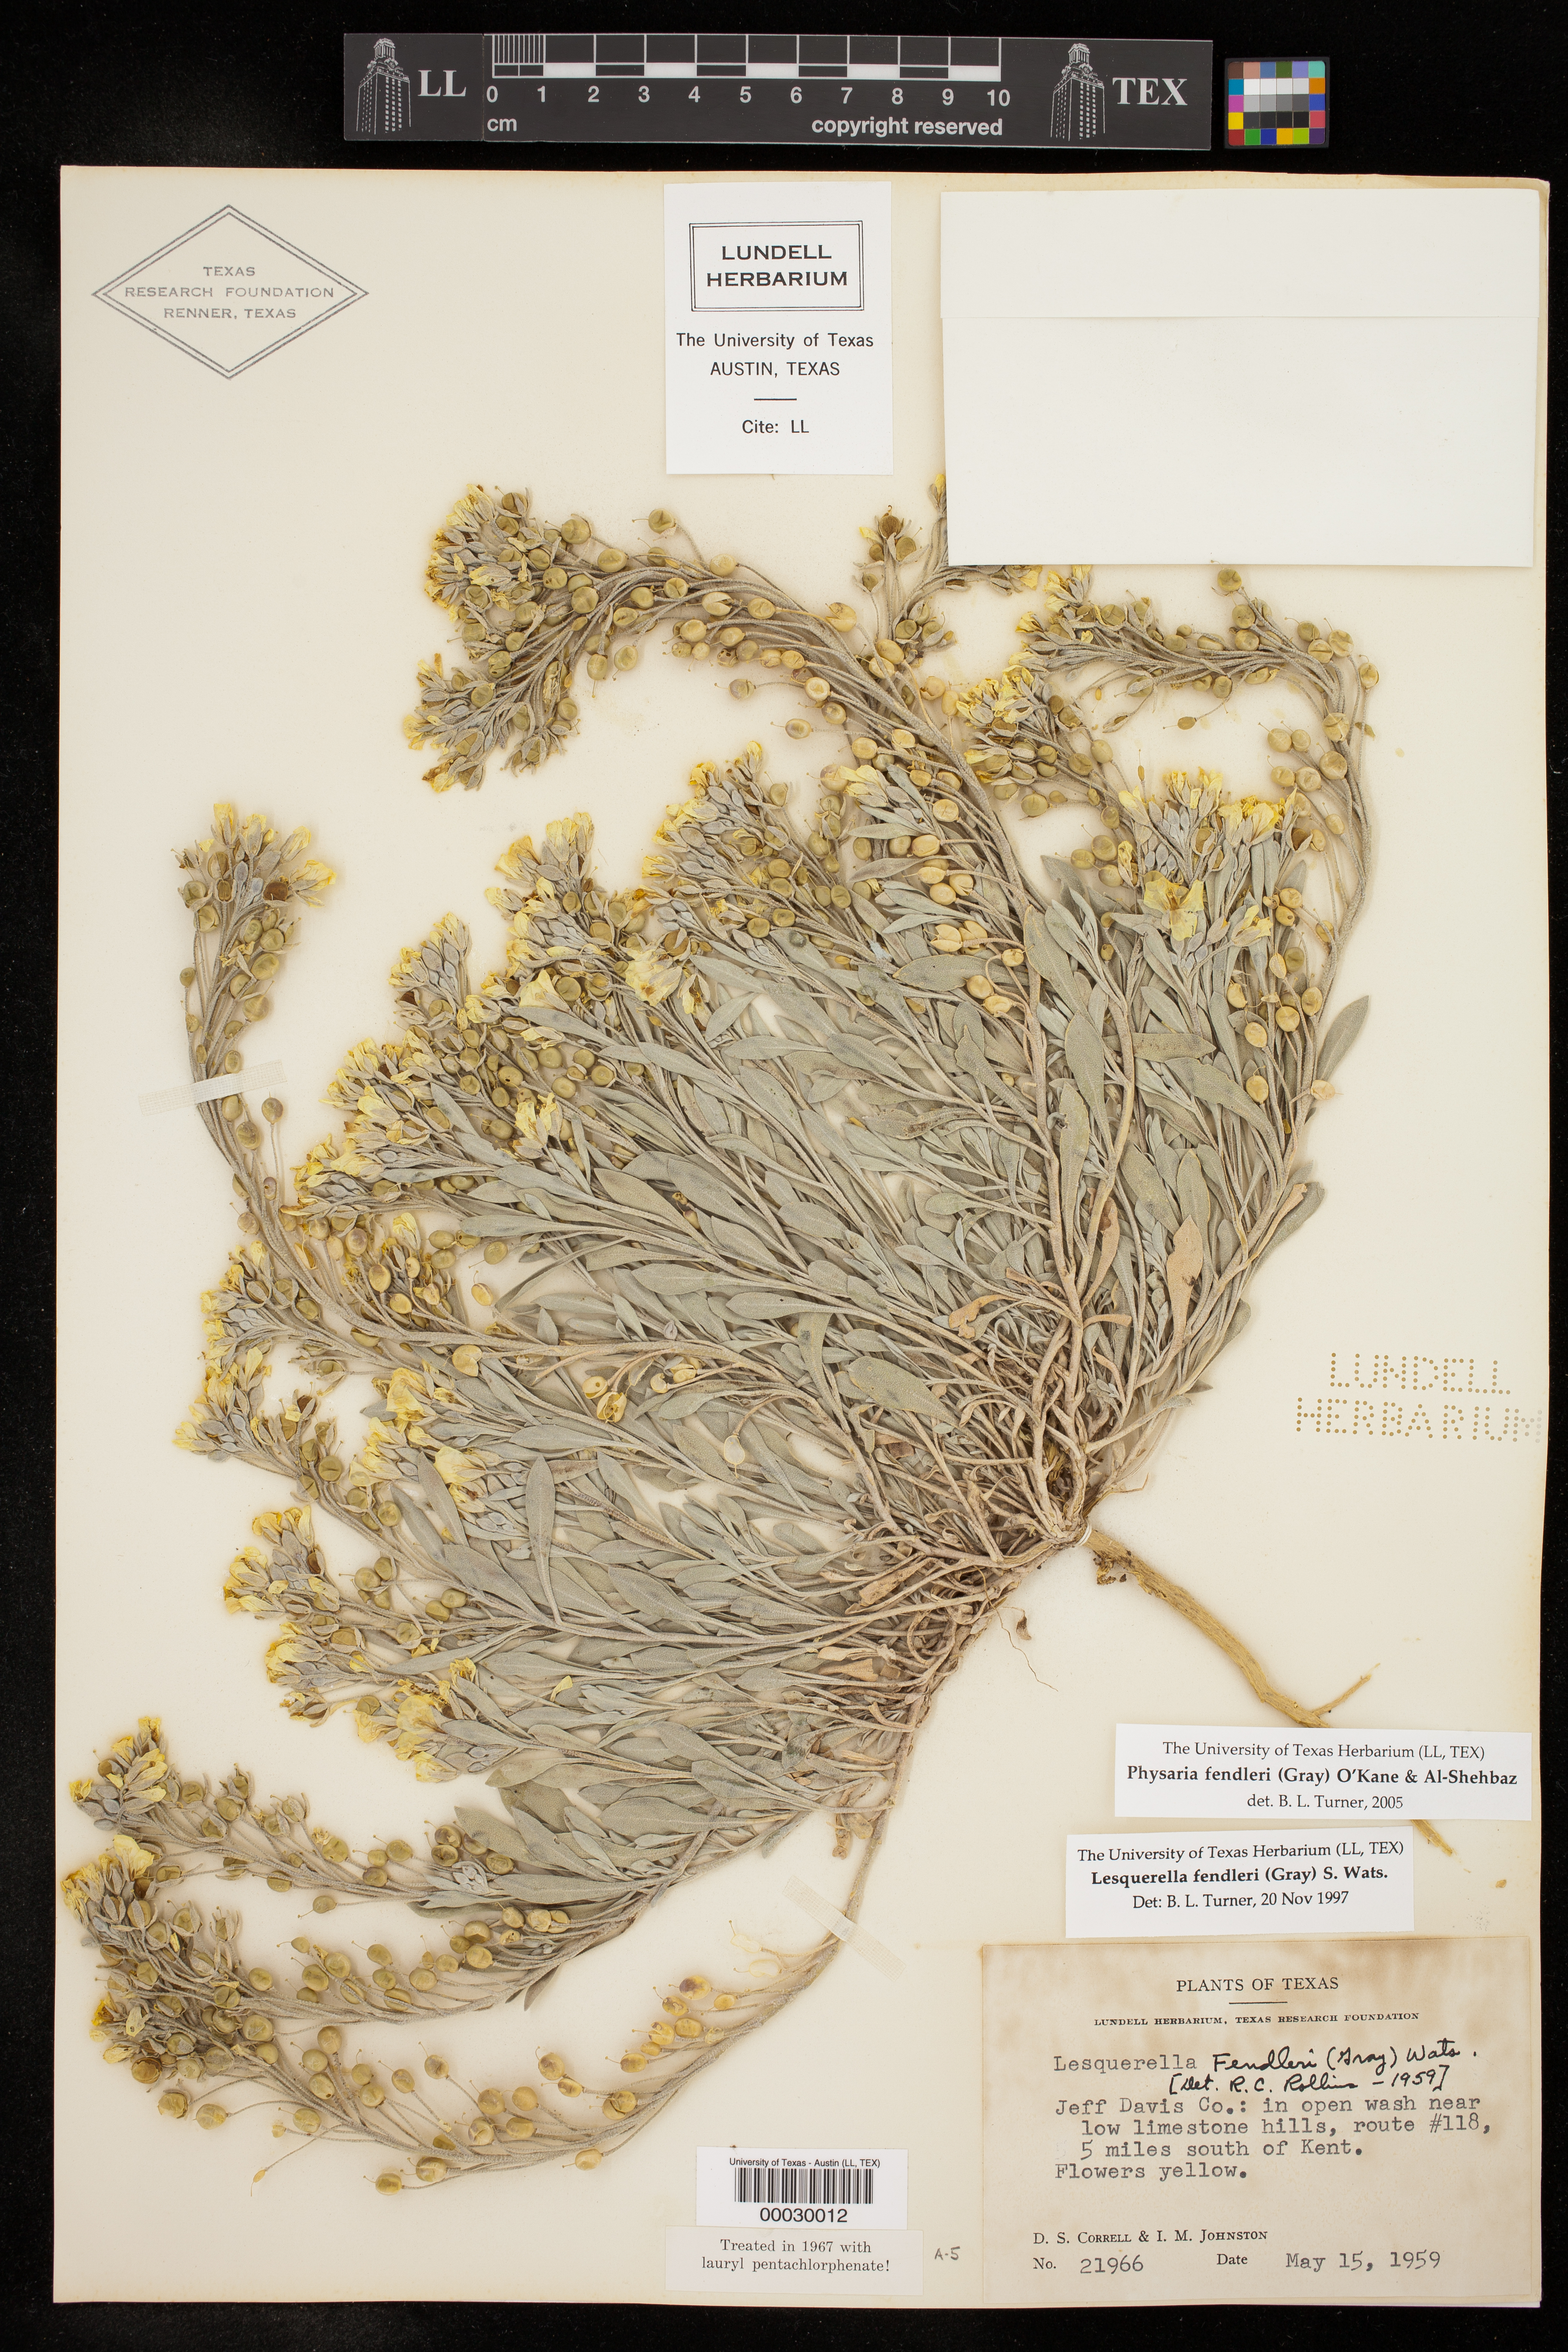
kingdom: Plantae
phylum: Tracheophyta
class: Magnoliopsida
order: Brassicales
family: Brassicaceae
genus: Physaria
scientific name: Physaria fendleri
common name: Fendler's bladderpod
